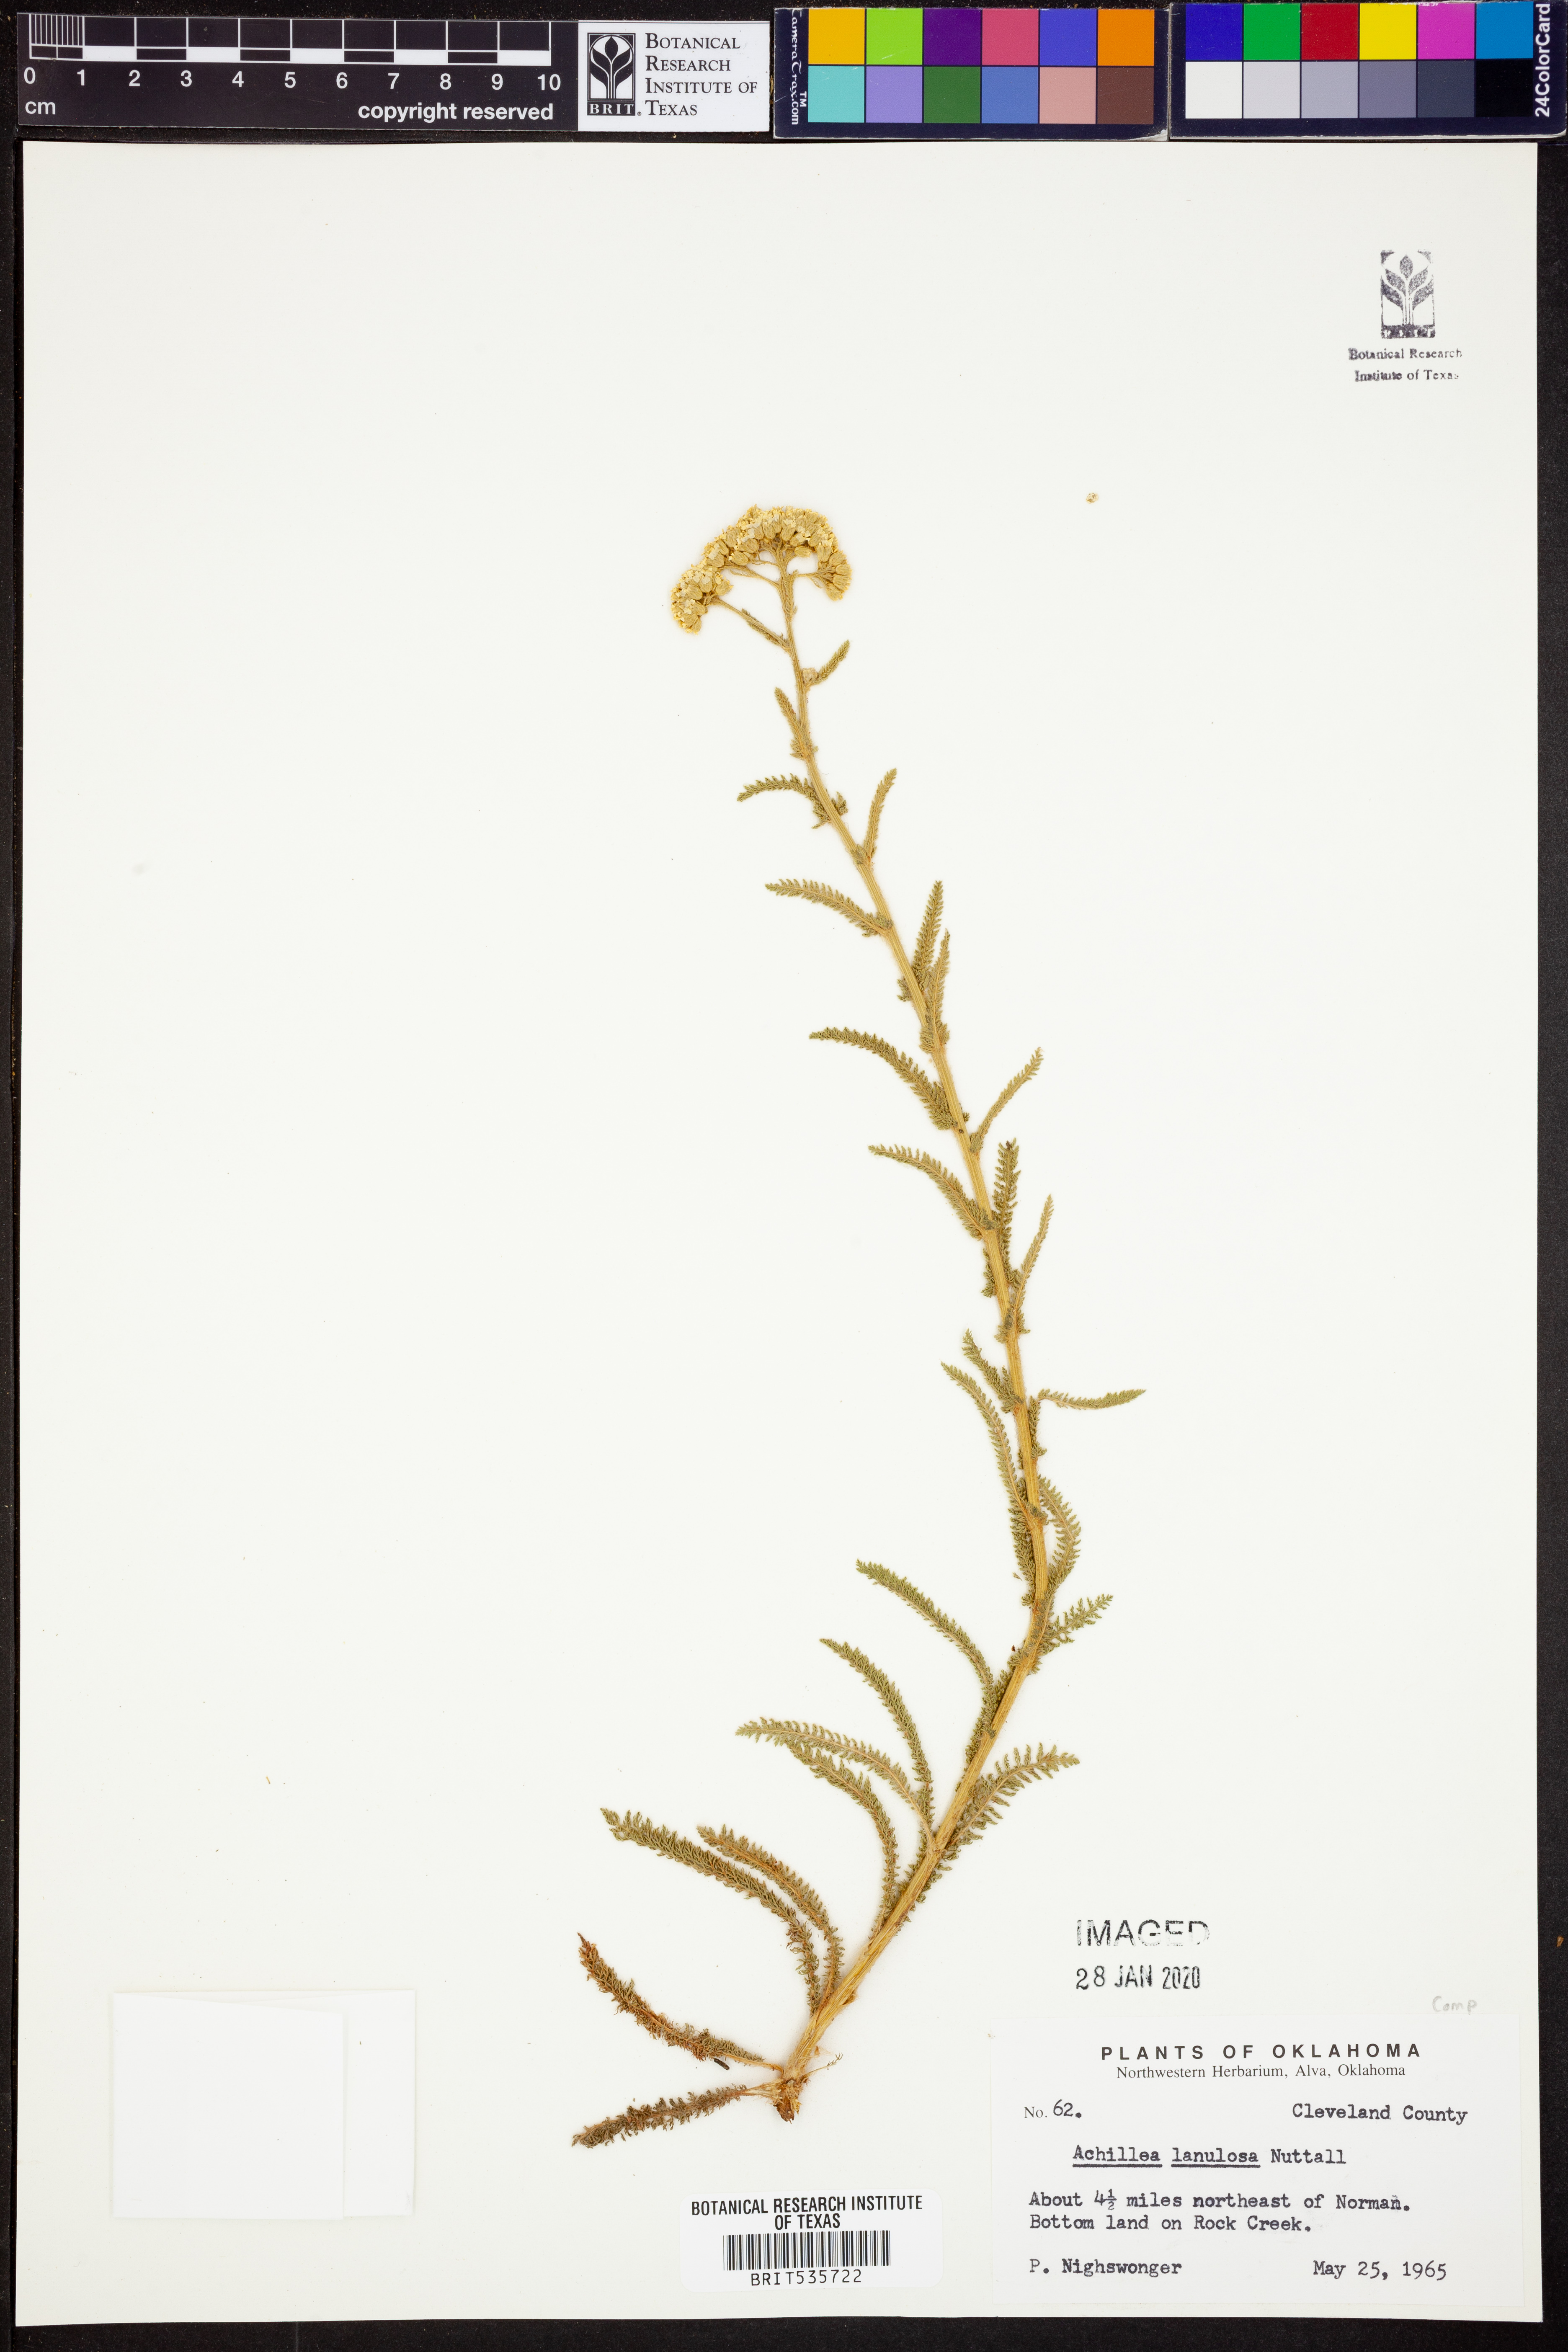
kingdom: Plantae
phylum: Tracheophyta
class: Magnoliopsida
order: Asterales
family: Asteraceae
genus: Achillea
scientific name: Achillea millefolium
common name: Yarrow
